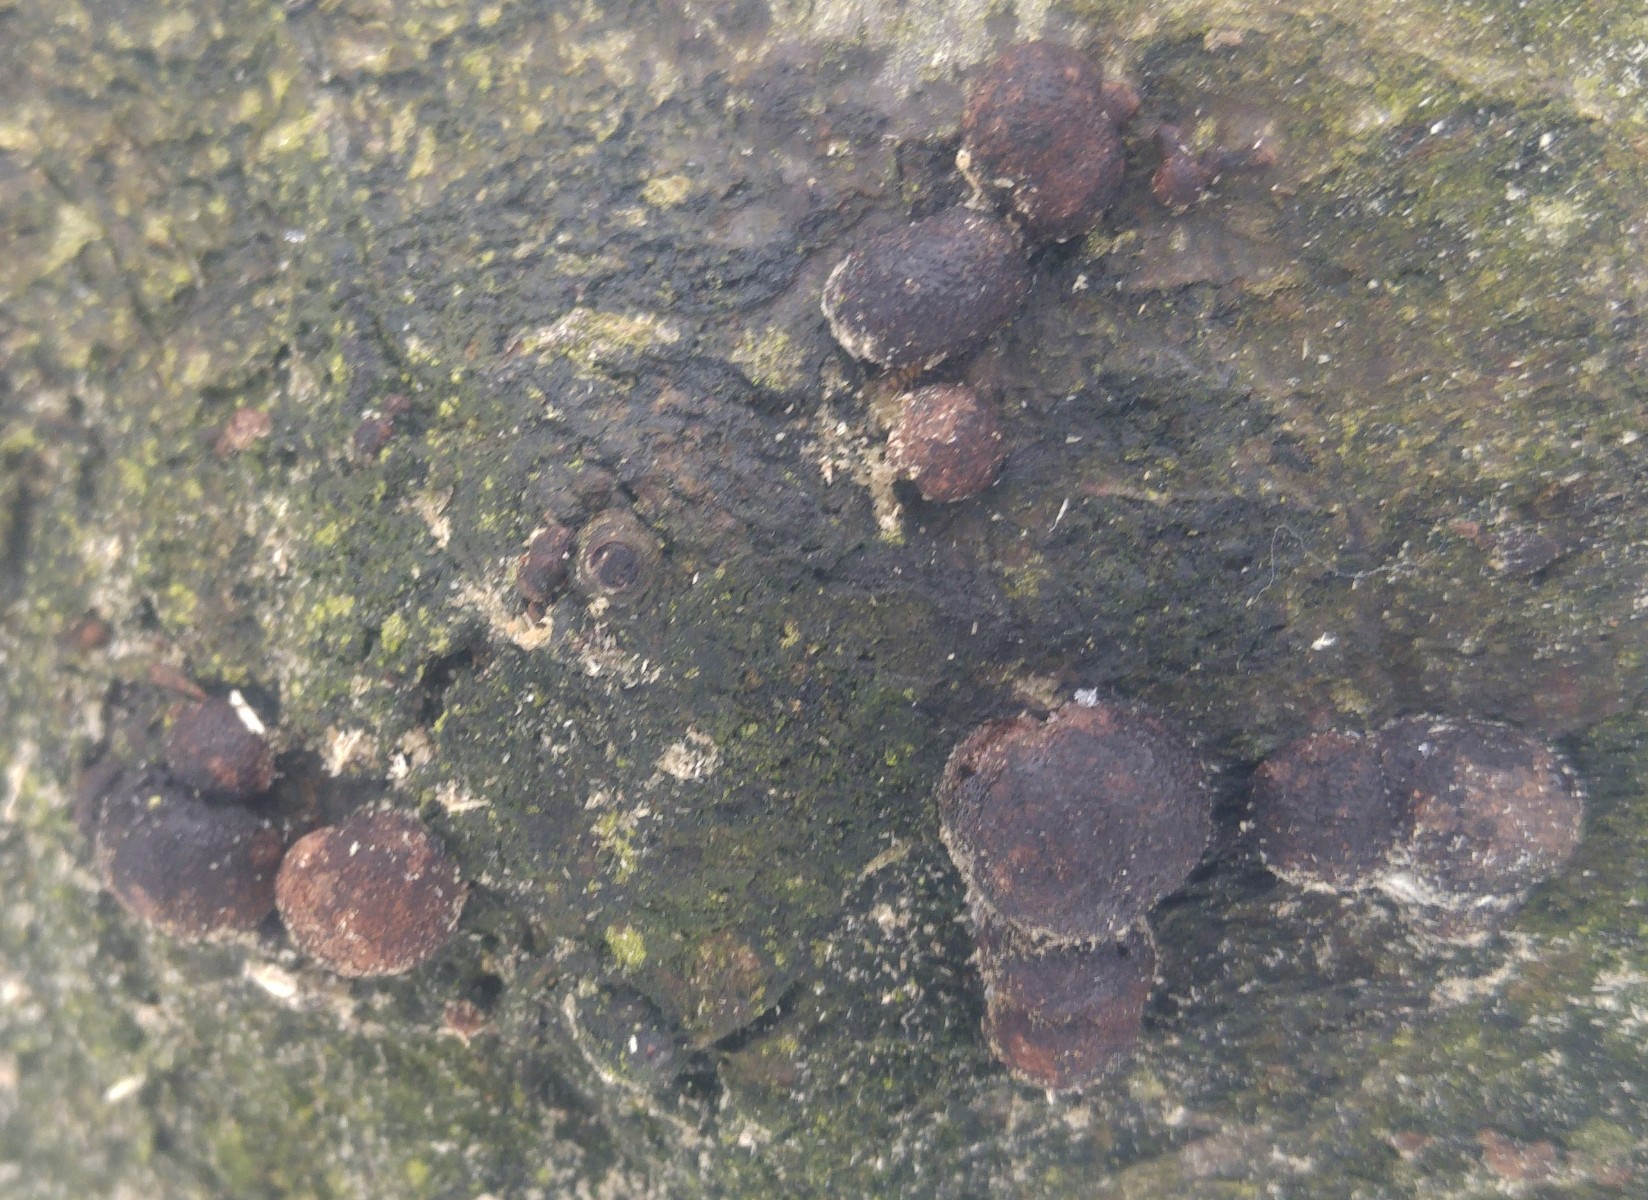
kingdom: Fungi
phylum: Ascomycota
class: Sordariomycetes
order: Xylariales
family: Hypoxylaceae
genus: Hypoxylon
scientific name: Hypoxylon fragiforme
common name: kuljordbær
